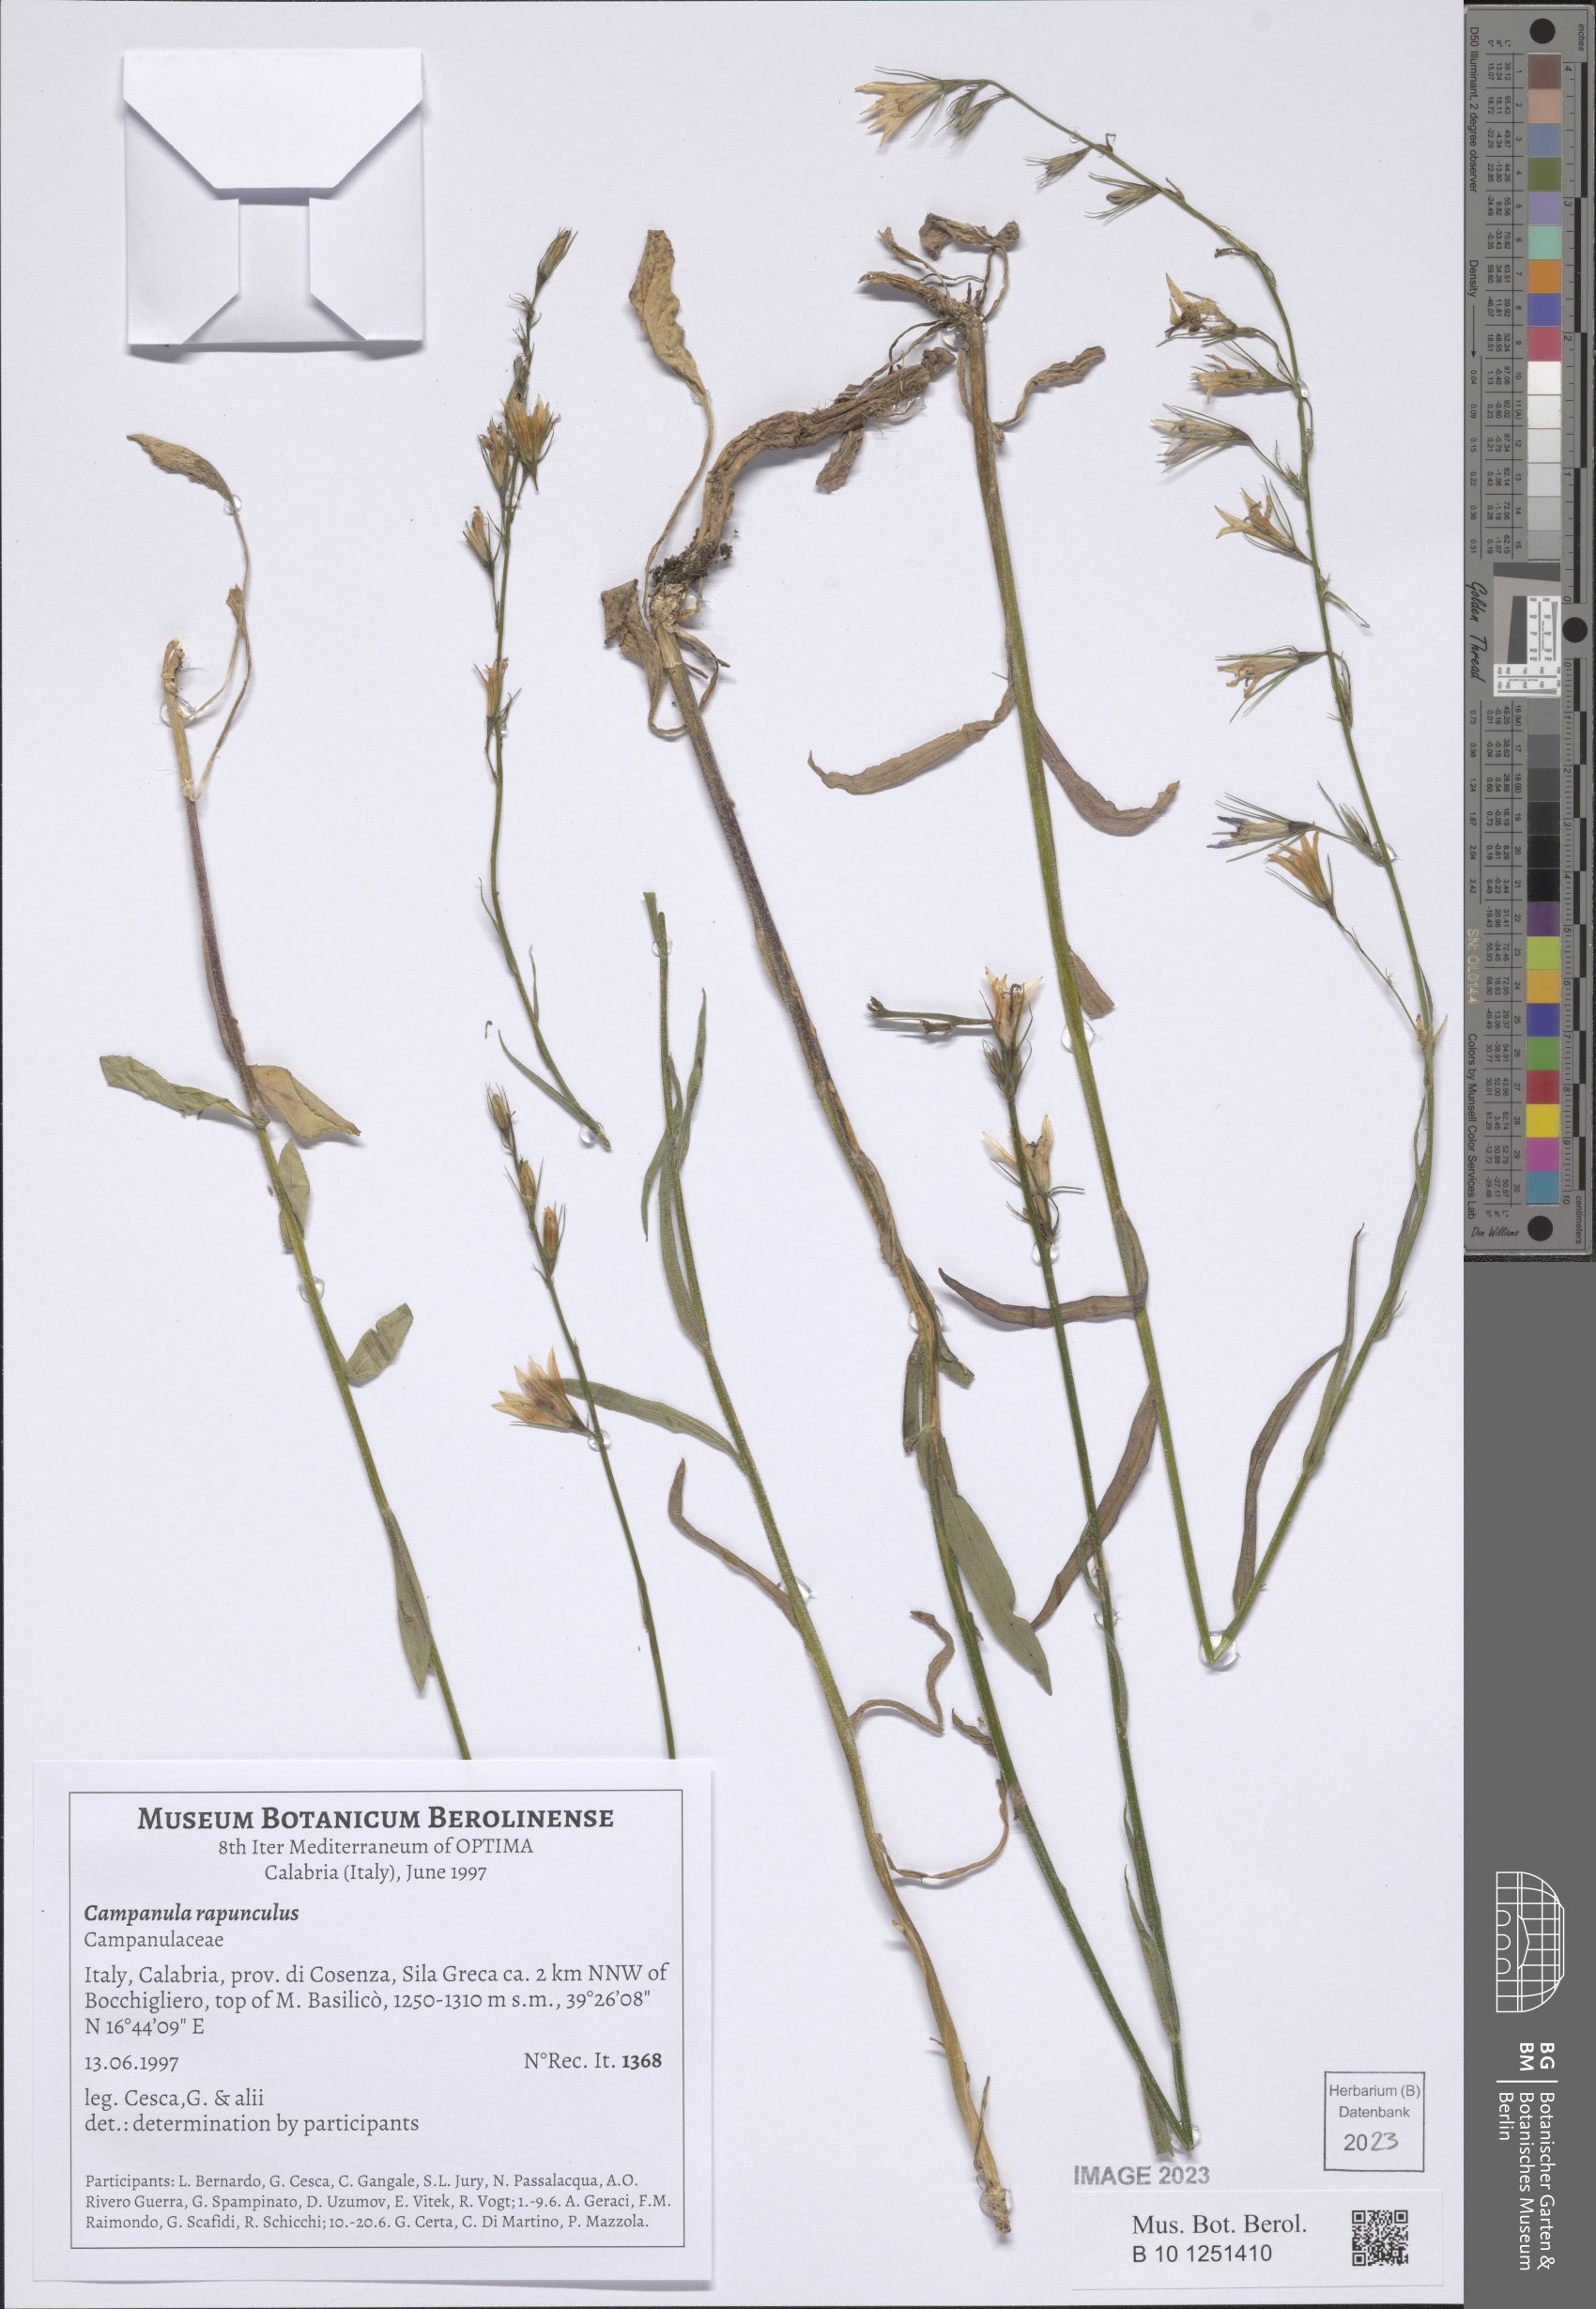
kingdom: Plantae
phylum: Tracheophyta
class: Magnoliopsida
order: Asterales
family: Campanulaceae
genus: Campanula
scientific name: Campanula rapunculus
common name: Rampion bellflower
